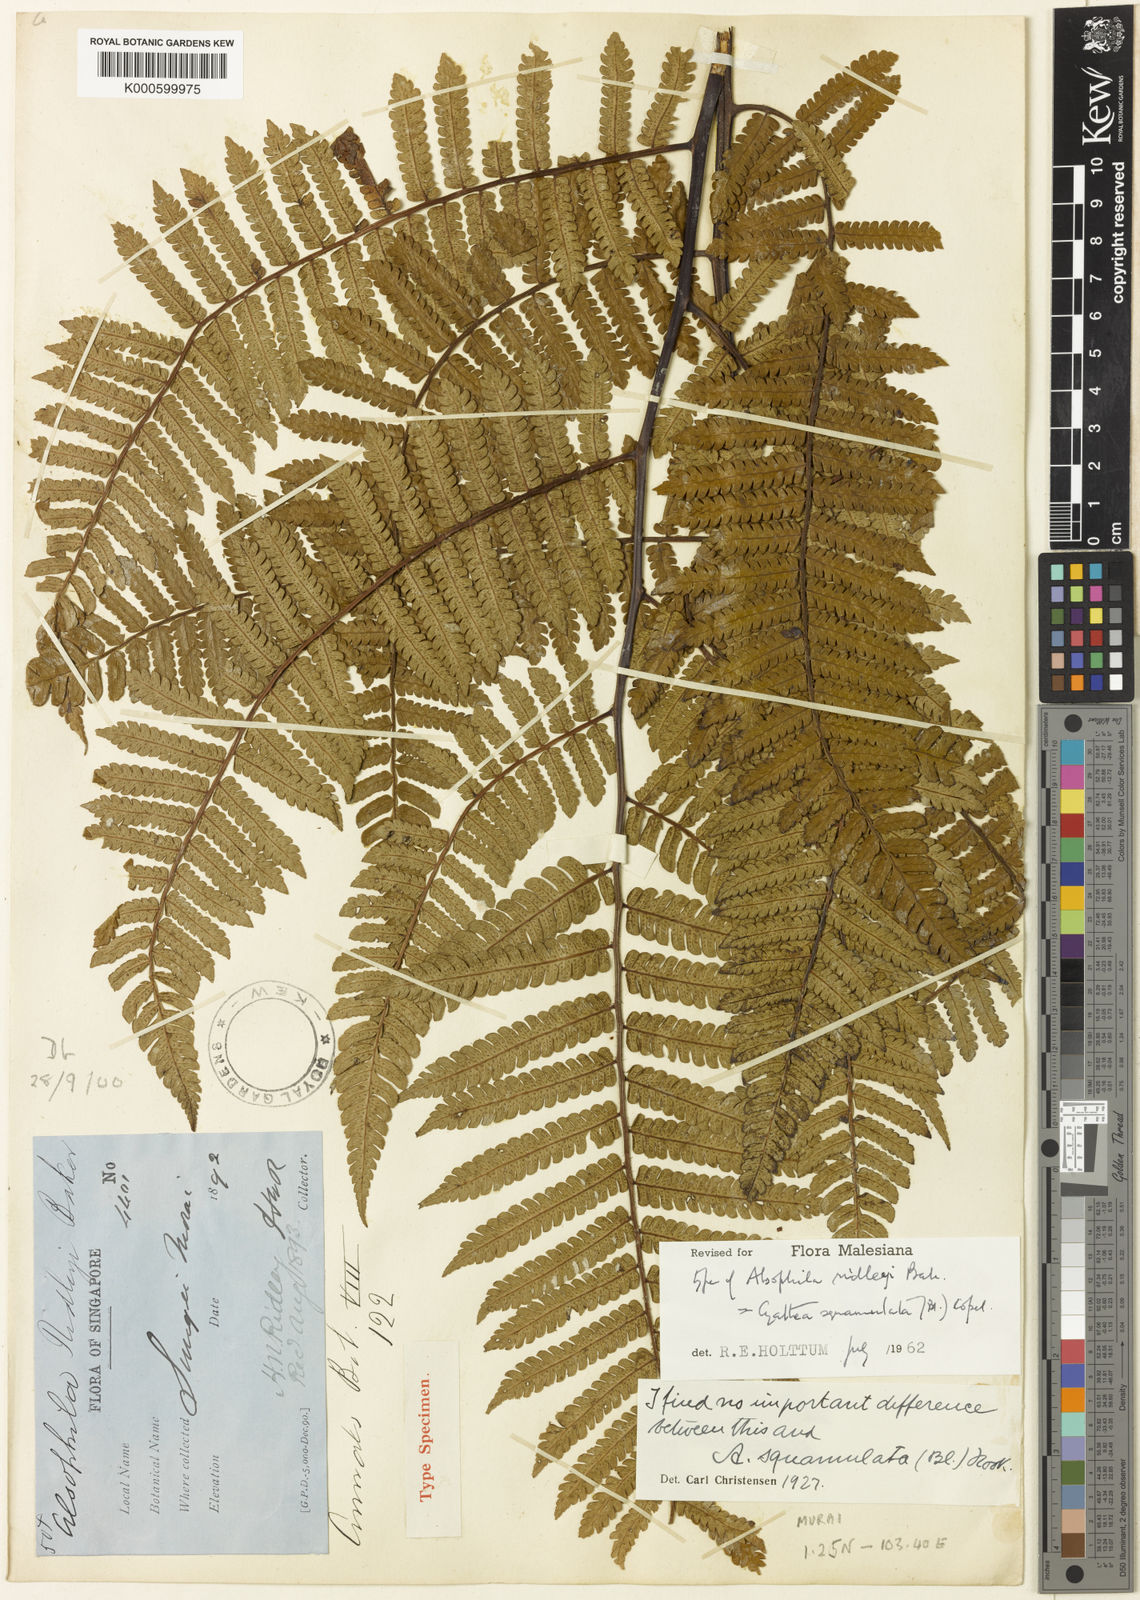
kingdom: Plantae
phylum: Tracheophyta
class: Polypodiopsida
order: Cyatheales
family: Cyatheaceae
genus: Sphaeropteris
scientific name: Sphaeropteris squamulata
